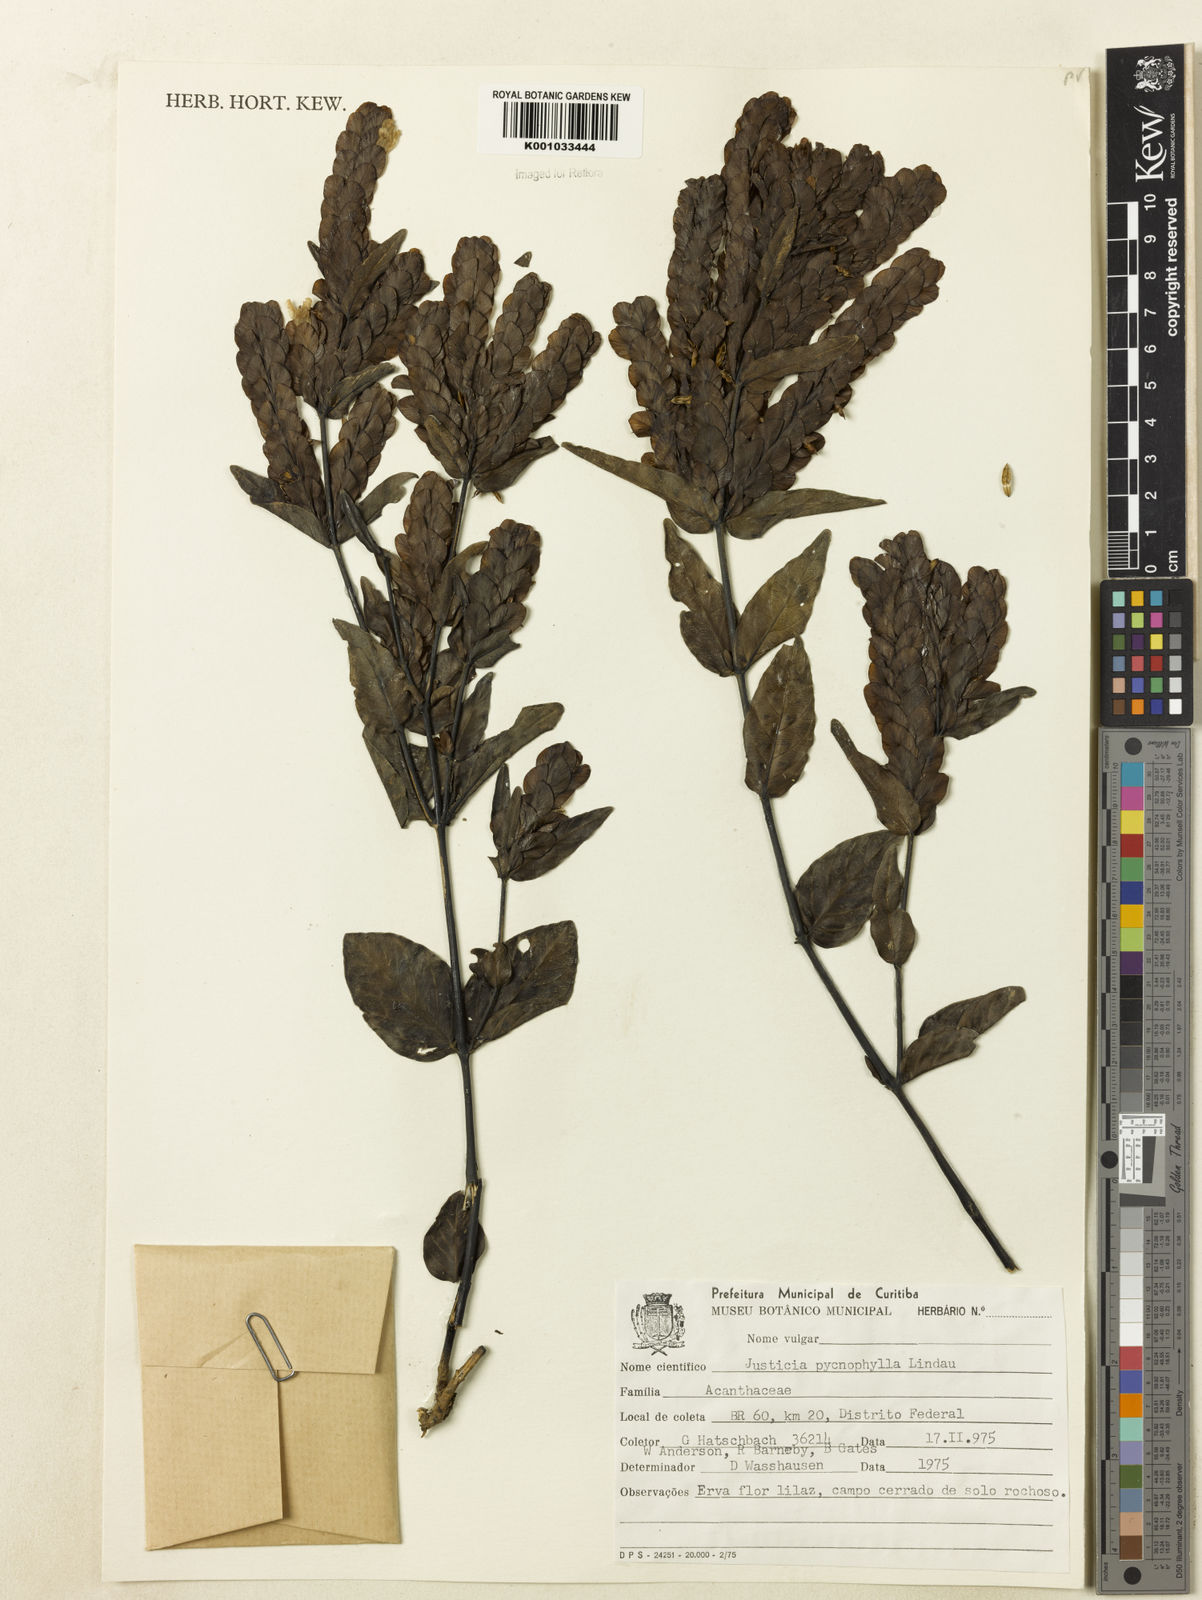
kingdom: Plantae
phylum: Tracheophyta
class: Magnoliopsida
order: Lamiales
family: Acanthaceae
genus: Justicia
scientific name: Justicia pycnophylla
